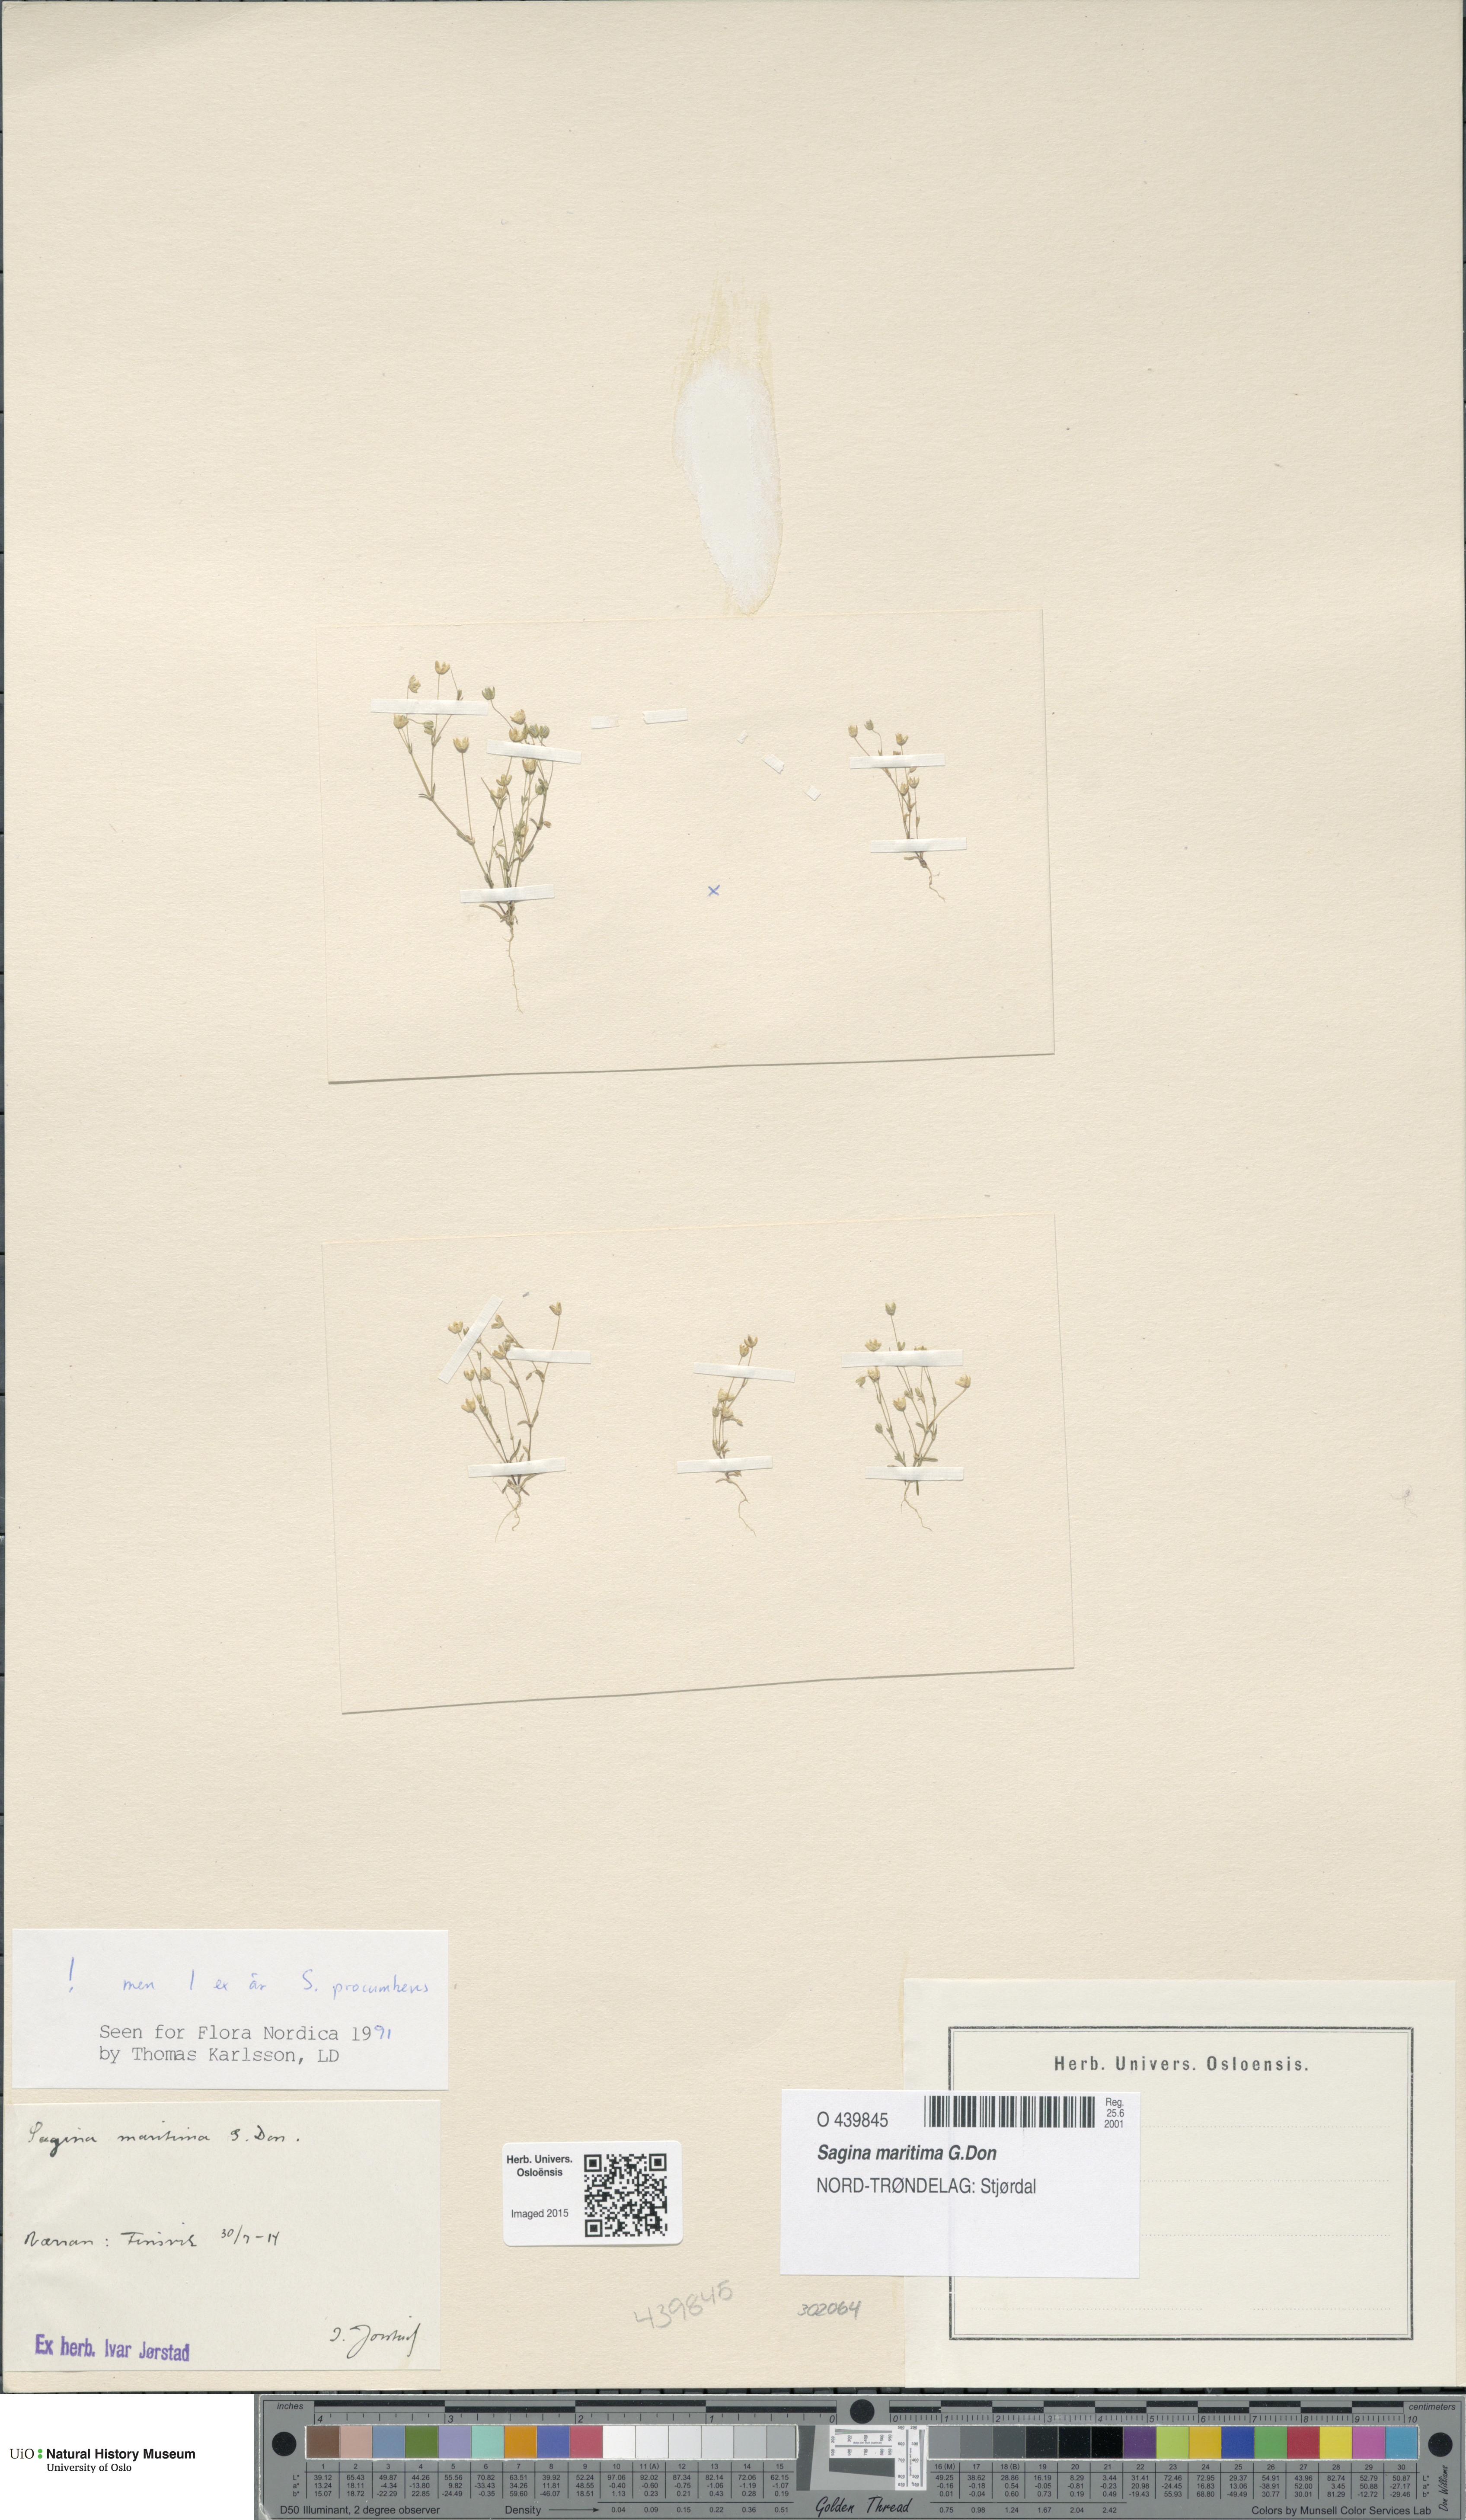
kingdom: Plantae
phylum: Tracheophyta
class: Magnoliopsida
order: Caryophyllales
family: Caryophyllaceae
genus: Sagina
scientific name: Sagina maritima
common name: Sea pearlwort
